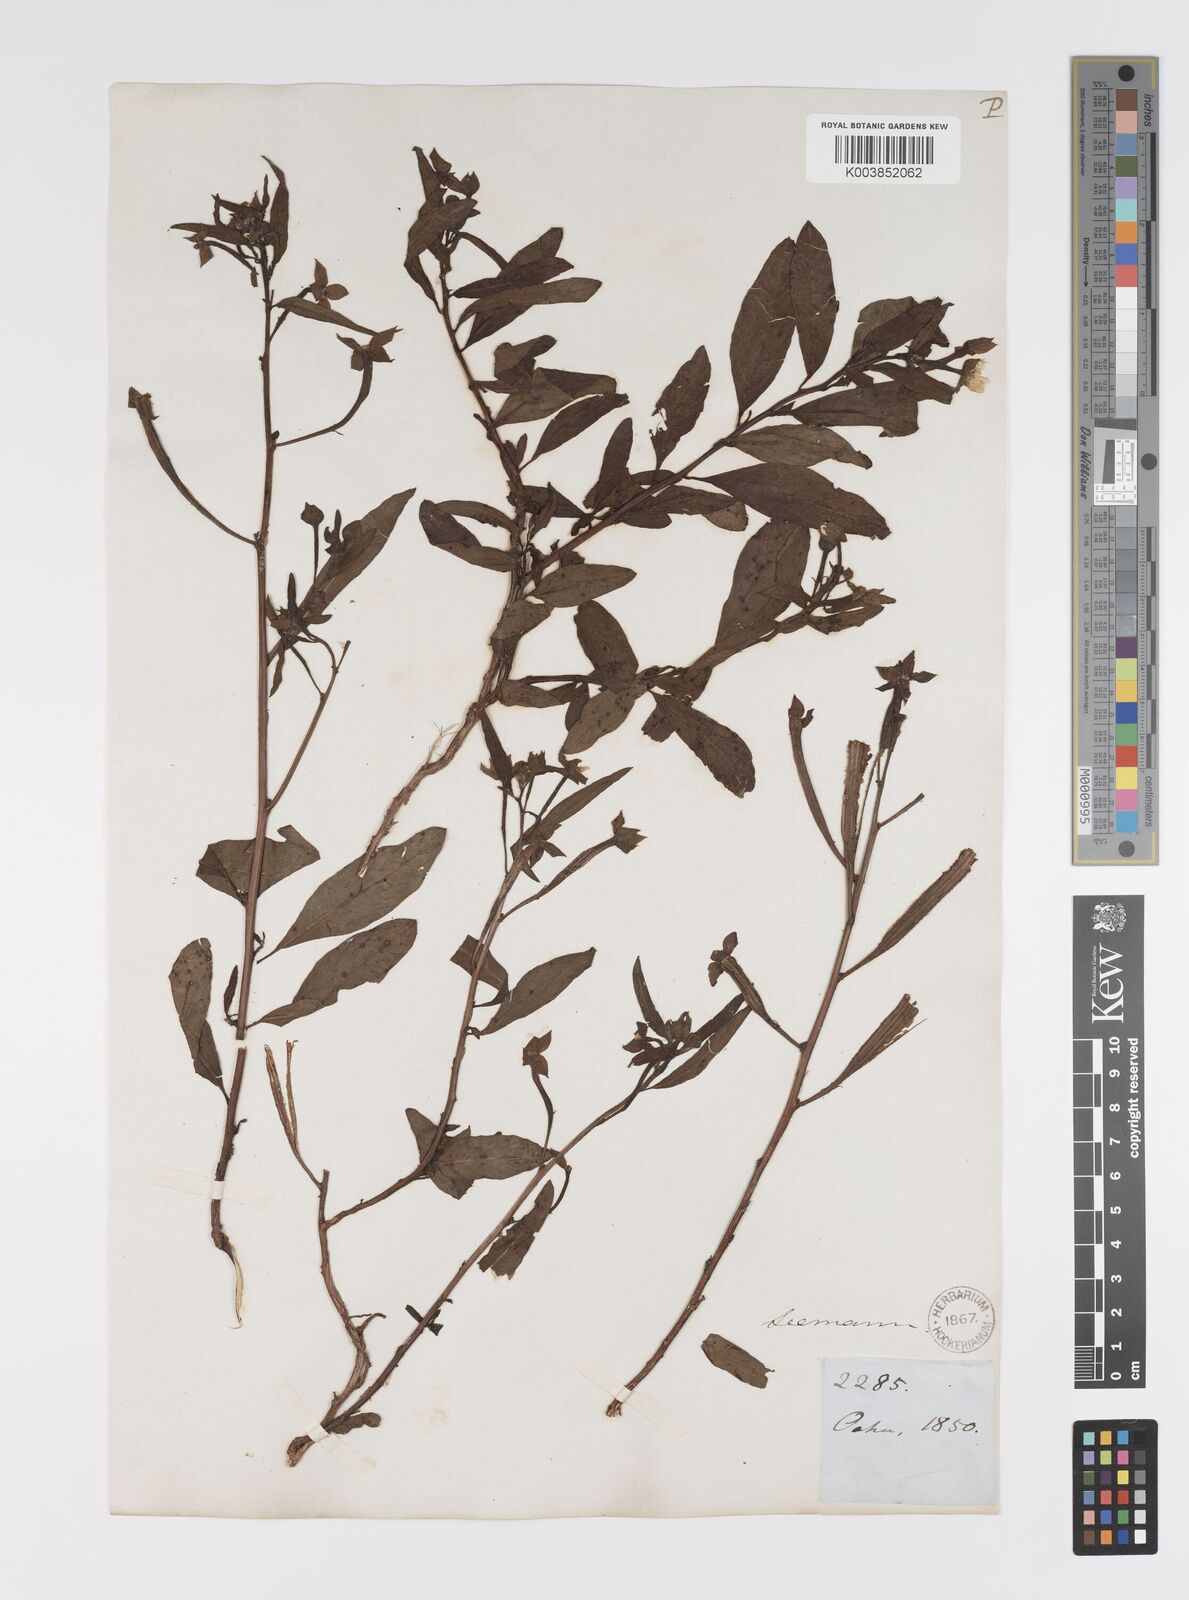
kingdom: Plantae
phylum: Tracheophyta
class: Magnoliopsida
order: Myrtales
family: Onagraceae
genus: Ludwigia
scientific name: Ludwigia octovalvis
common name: Water-primrose
